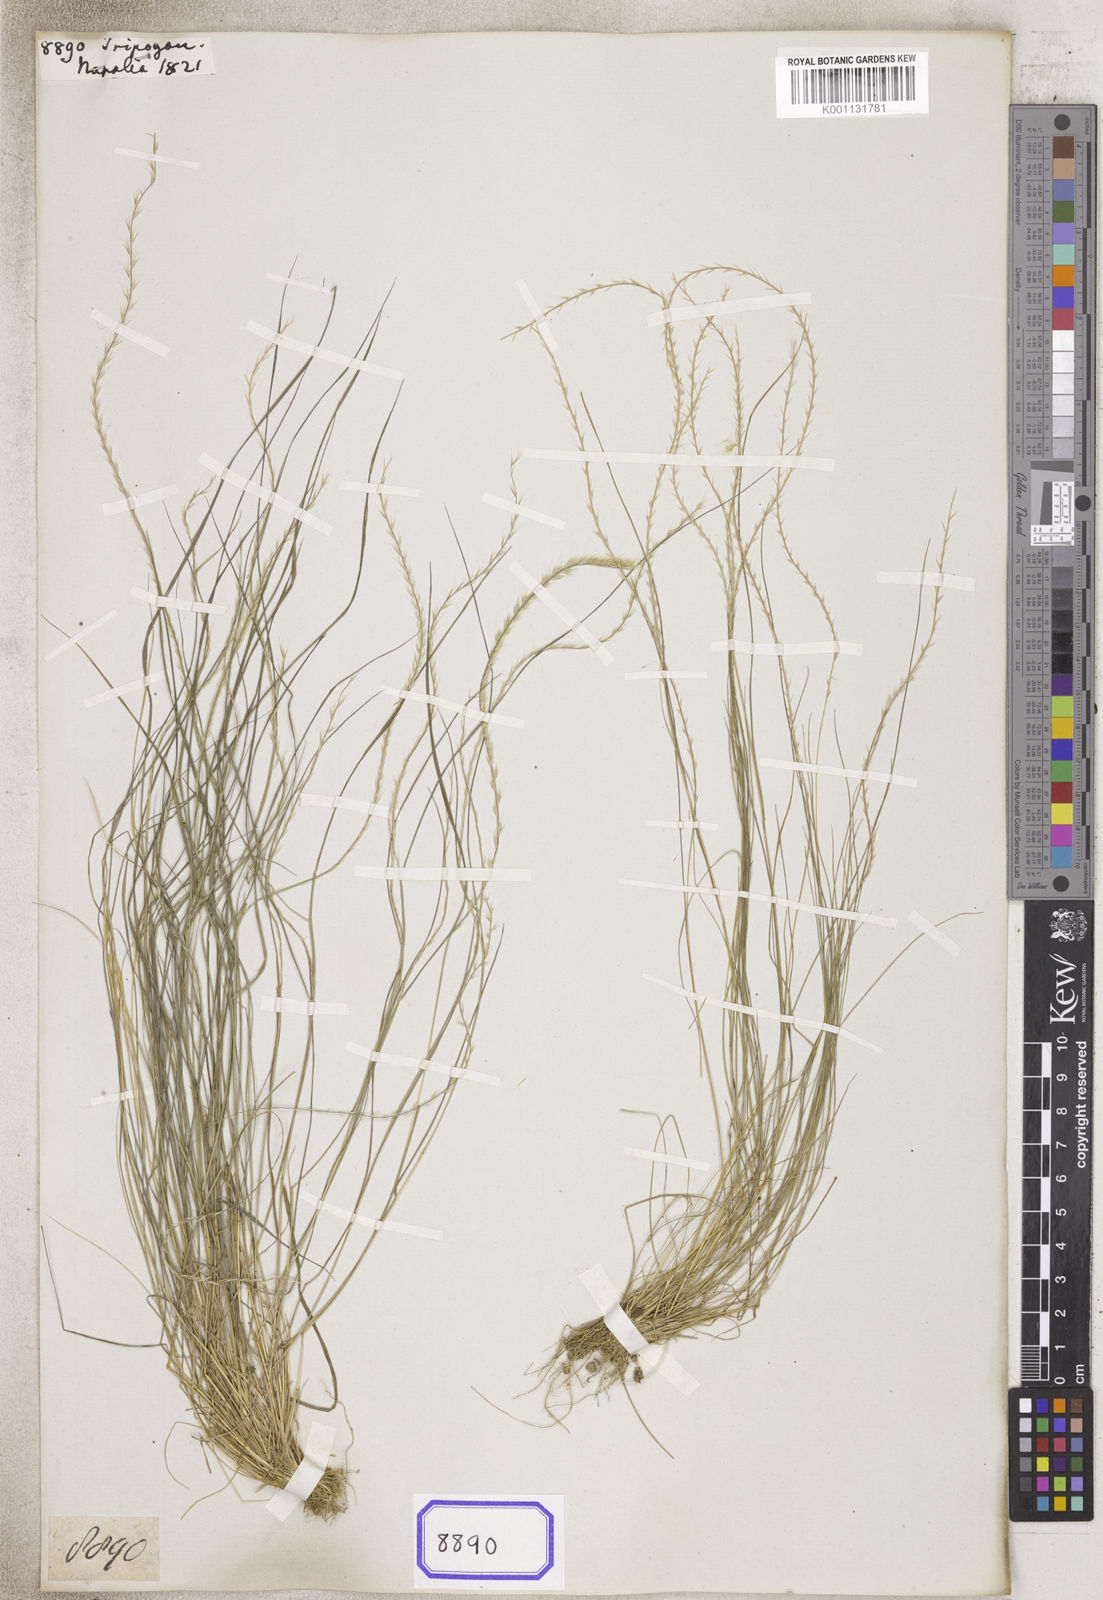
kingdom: Plantae
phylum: Tracheophyta
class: Liliopsida
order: Poales
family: Poaceae
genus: Tripogon
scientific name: Tripogon
